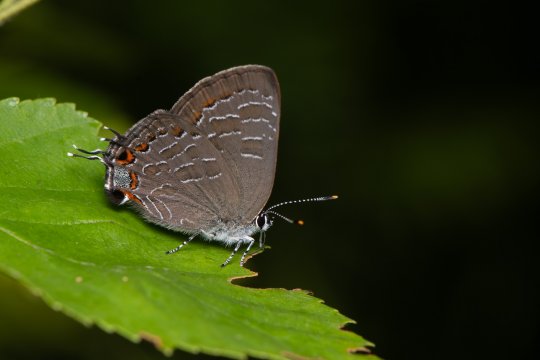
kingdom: Animalia
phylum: Arthropoda
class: Insecta
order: Lepidoptera
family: Lycaenidae
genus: Satyrium
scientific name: Satyrium liparops
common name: Striped Hairstreak
